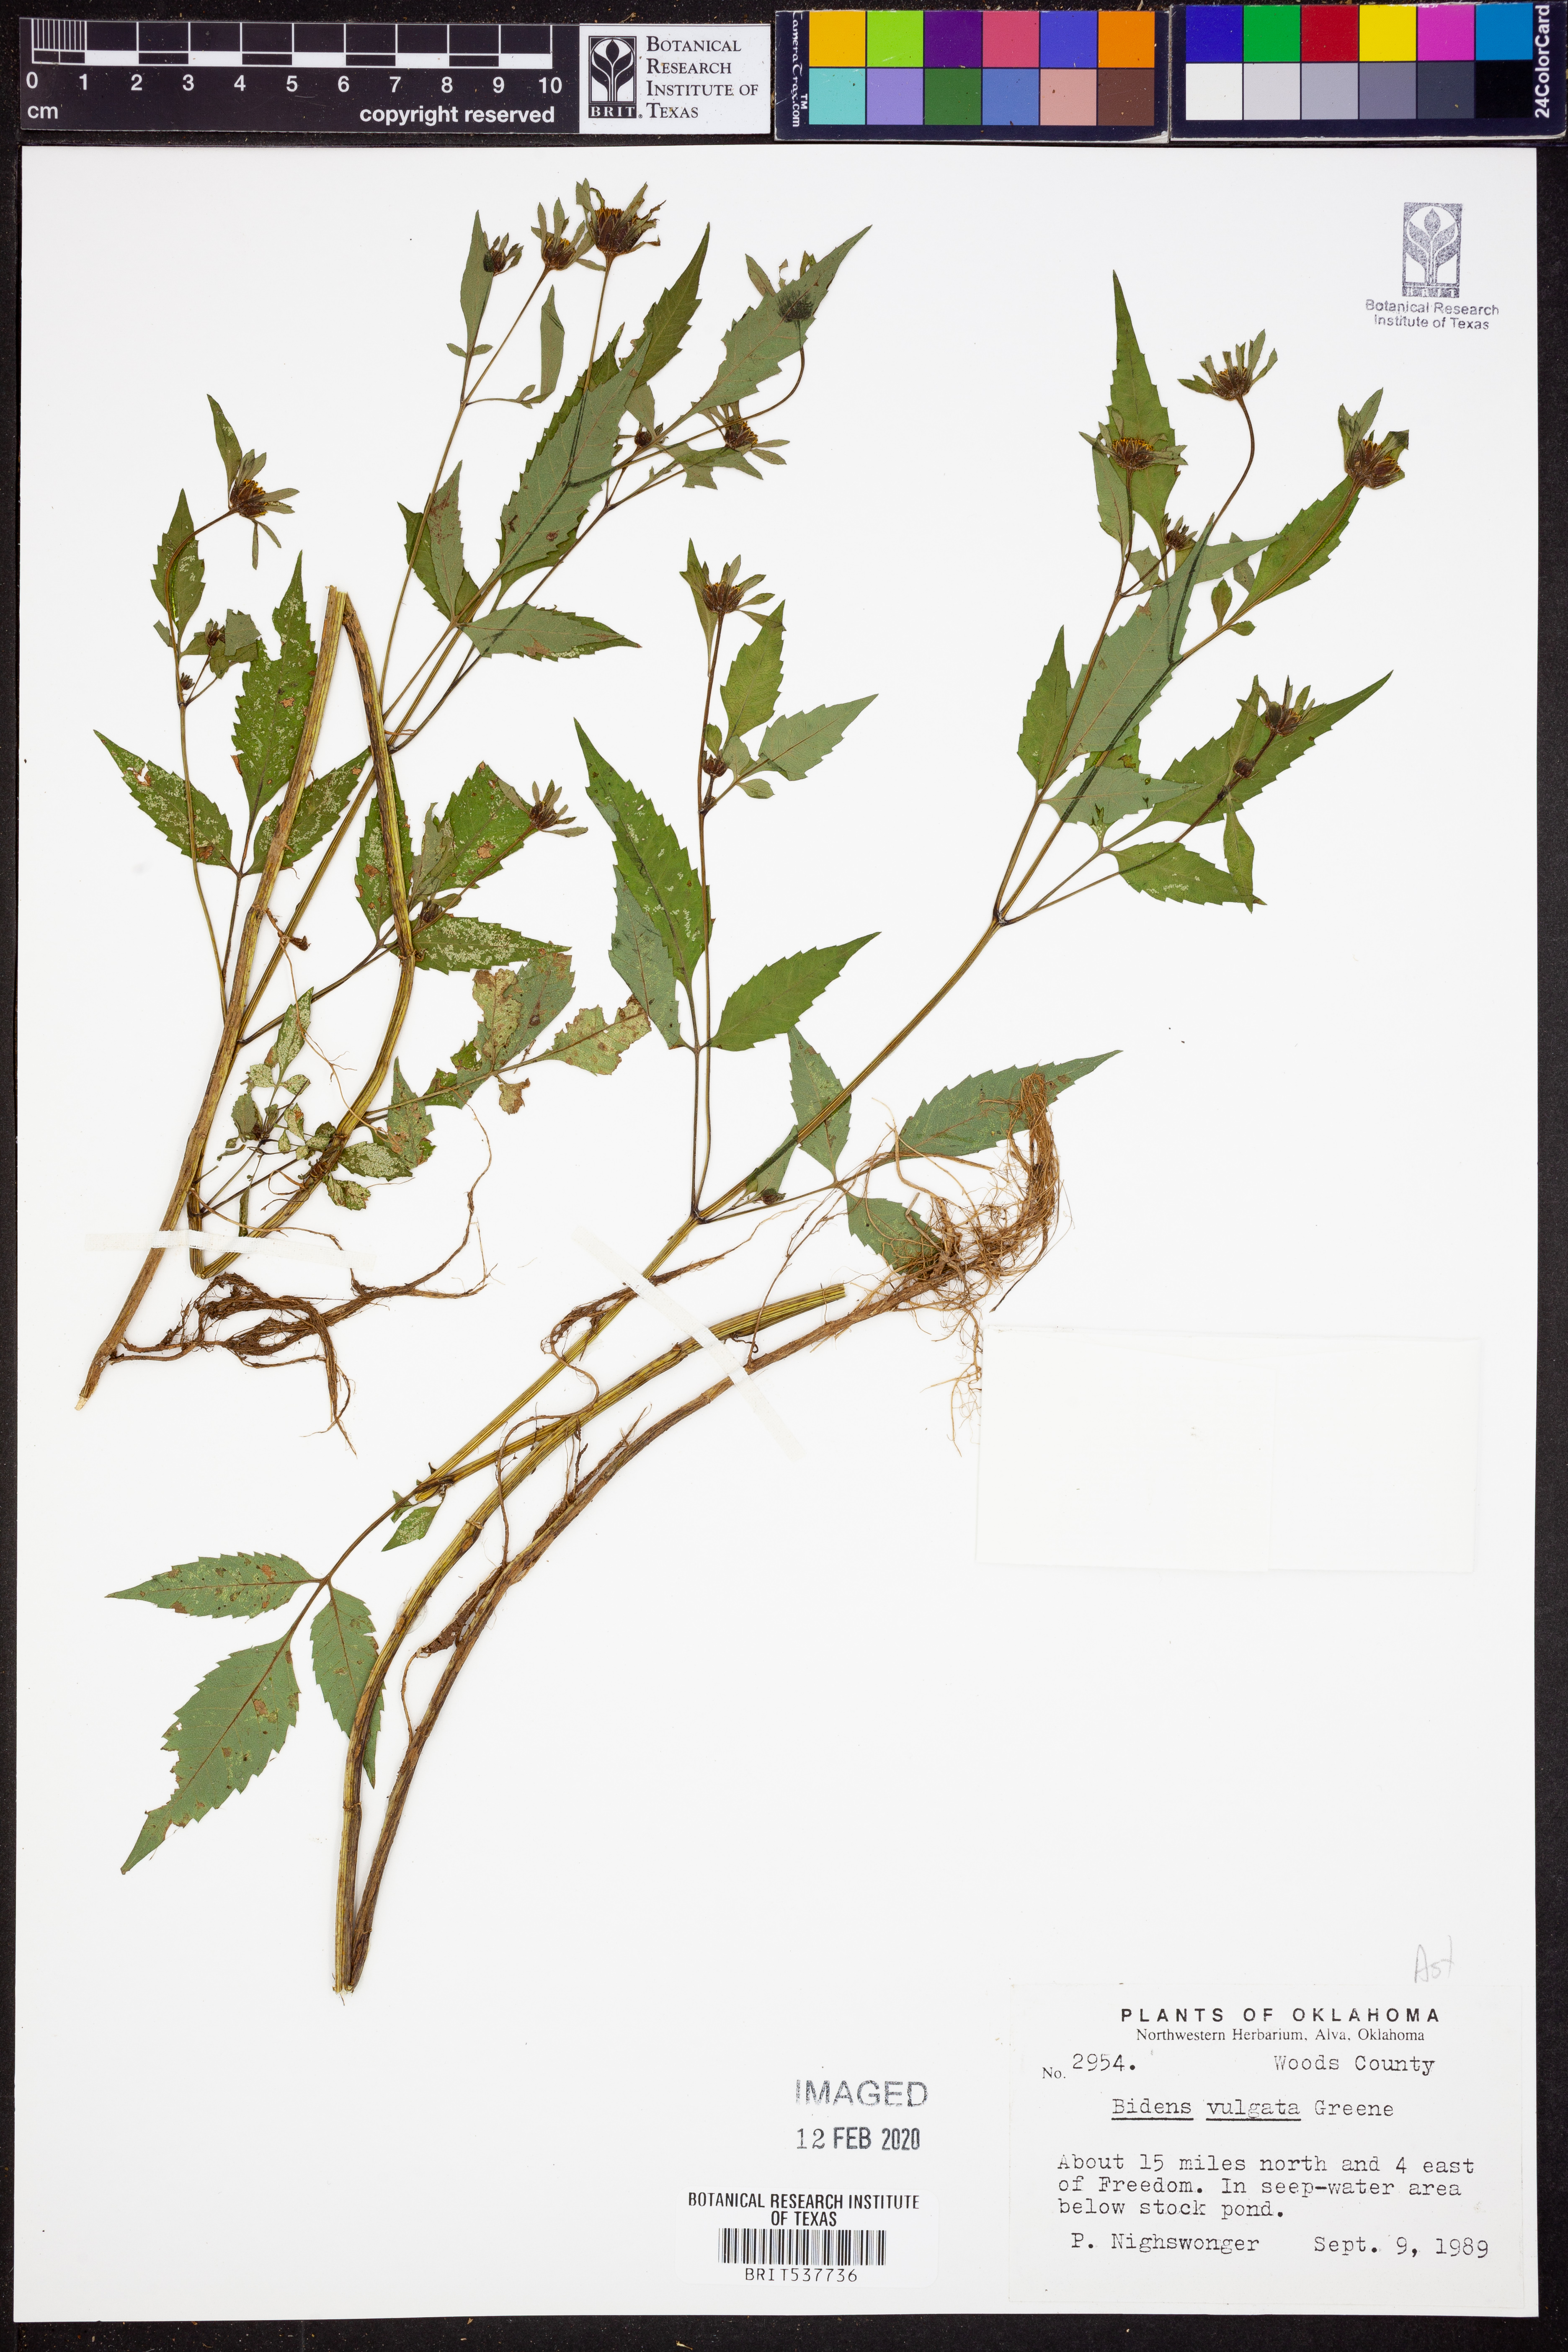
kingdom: Plantae
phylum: Tracheophyta
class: Magnoliopsida
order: Asterales
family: Asteraceae
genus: Bidens
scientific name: Bidens vulgata
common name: Tall beggarticks
